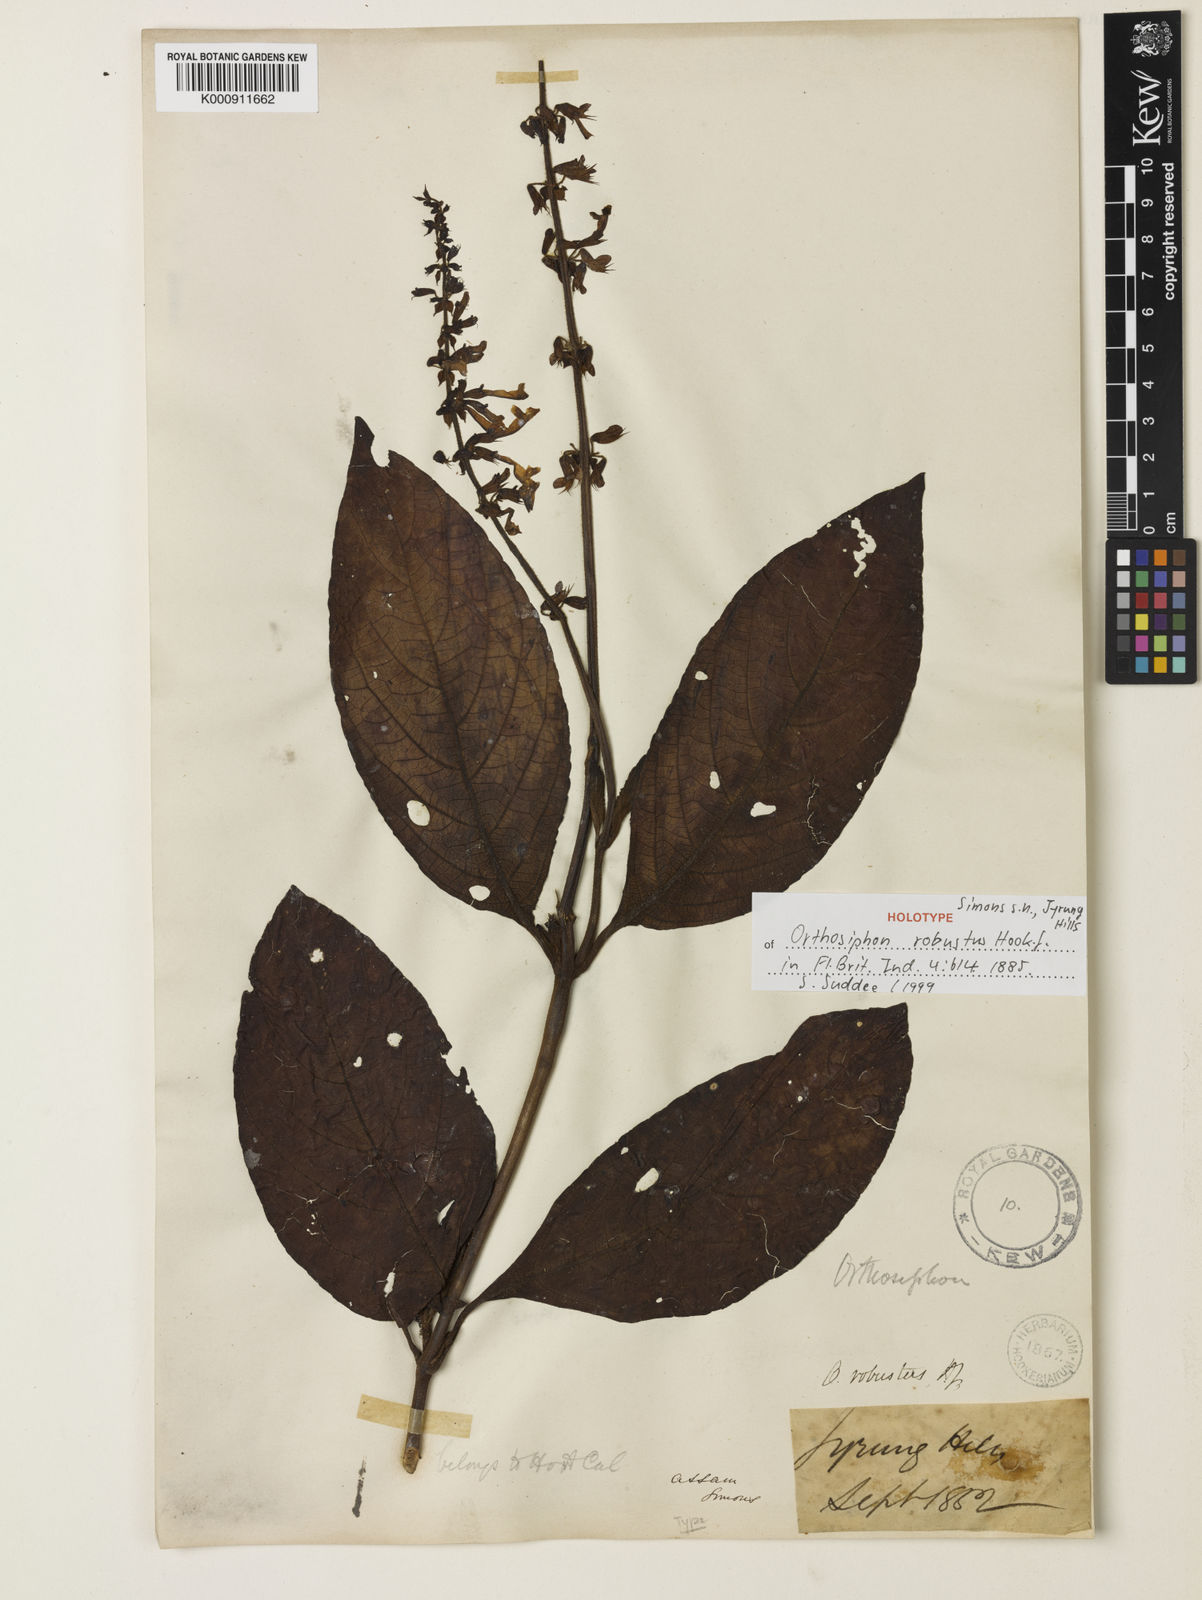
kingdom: Plantae
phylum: Tracheophyta
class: Magnoliopsida
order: Lamiales
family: Lamiaceae
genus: Orthosiphon
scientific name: Orthosiphon robustus
